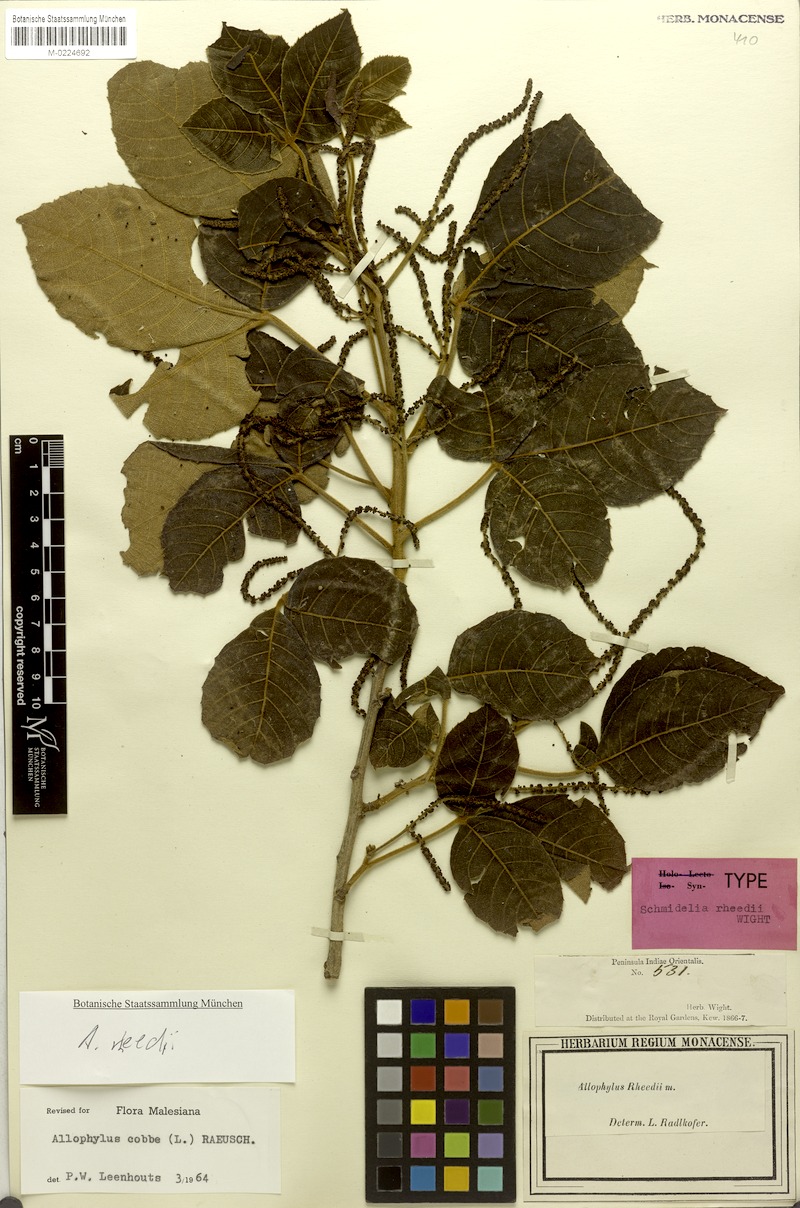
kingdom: Plantae
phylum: Tracheophyta
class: Magnoliopsida
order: Sapindales
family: Sapindaceae
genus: Allophylus
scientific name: Allophylus rheedei
